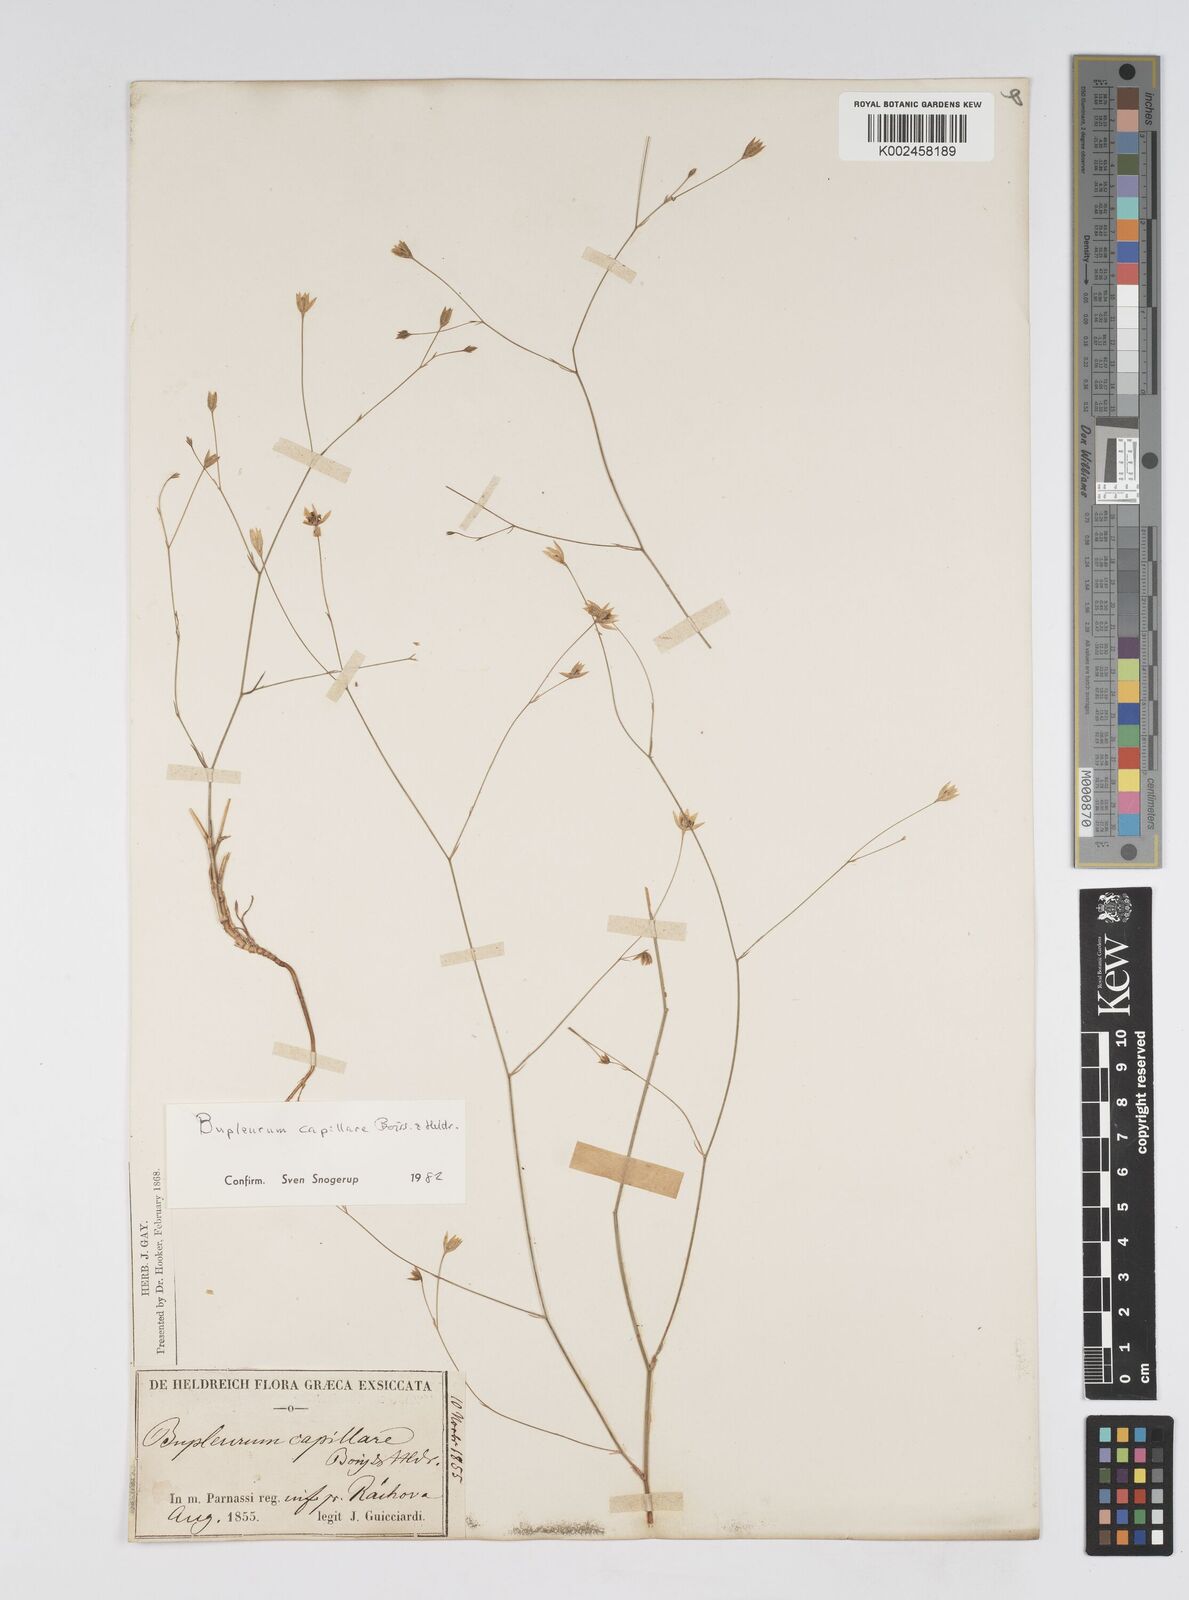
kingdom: Plantae
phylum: Tracheophyta
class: Magnoliopsida
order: Apiales
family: Apiaceae
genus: Bupleurum
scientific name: Bupleurum capillare
